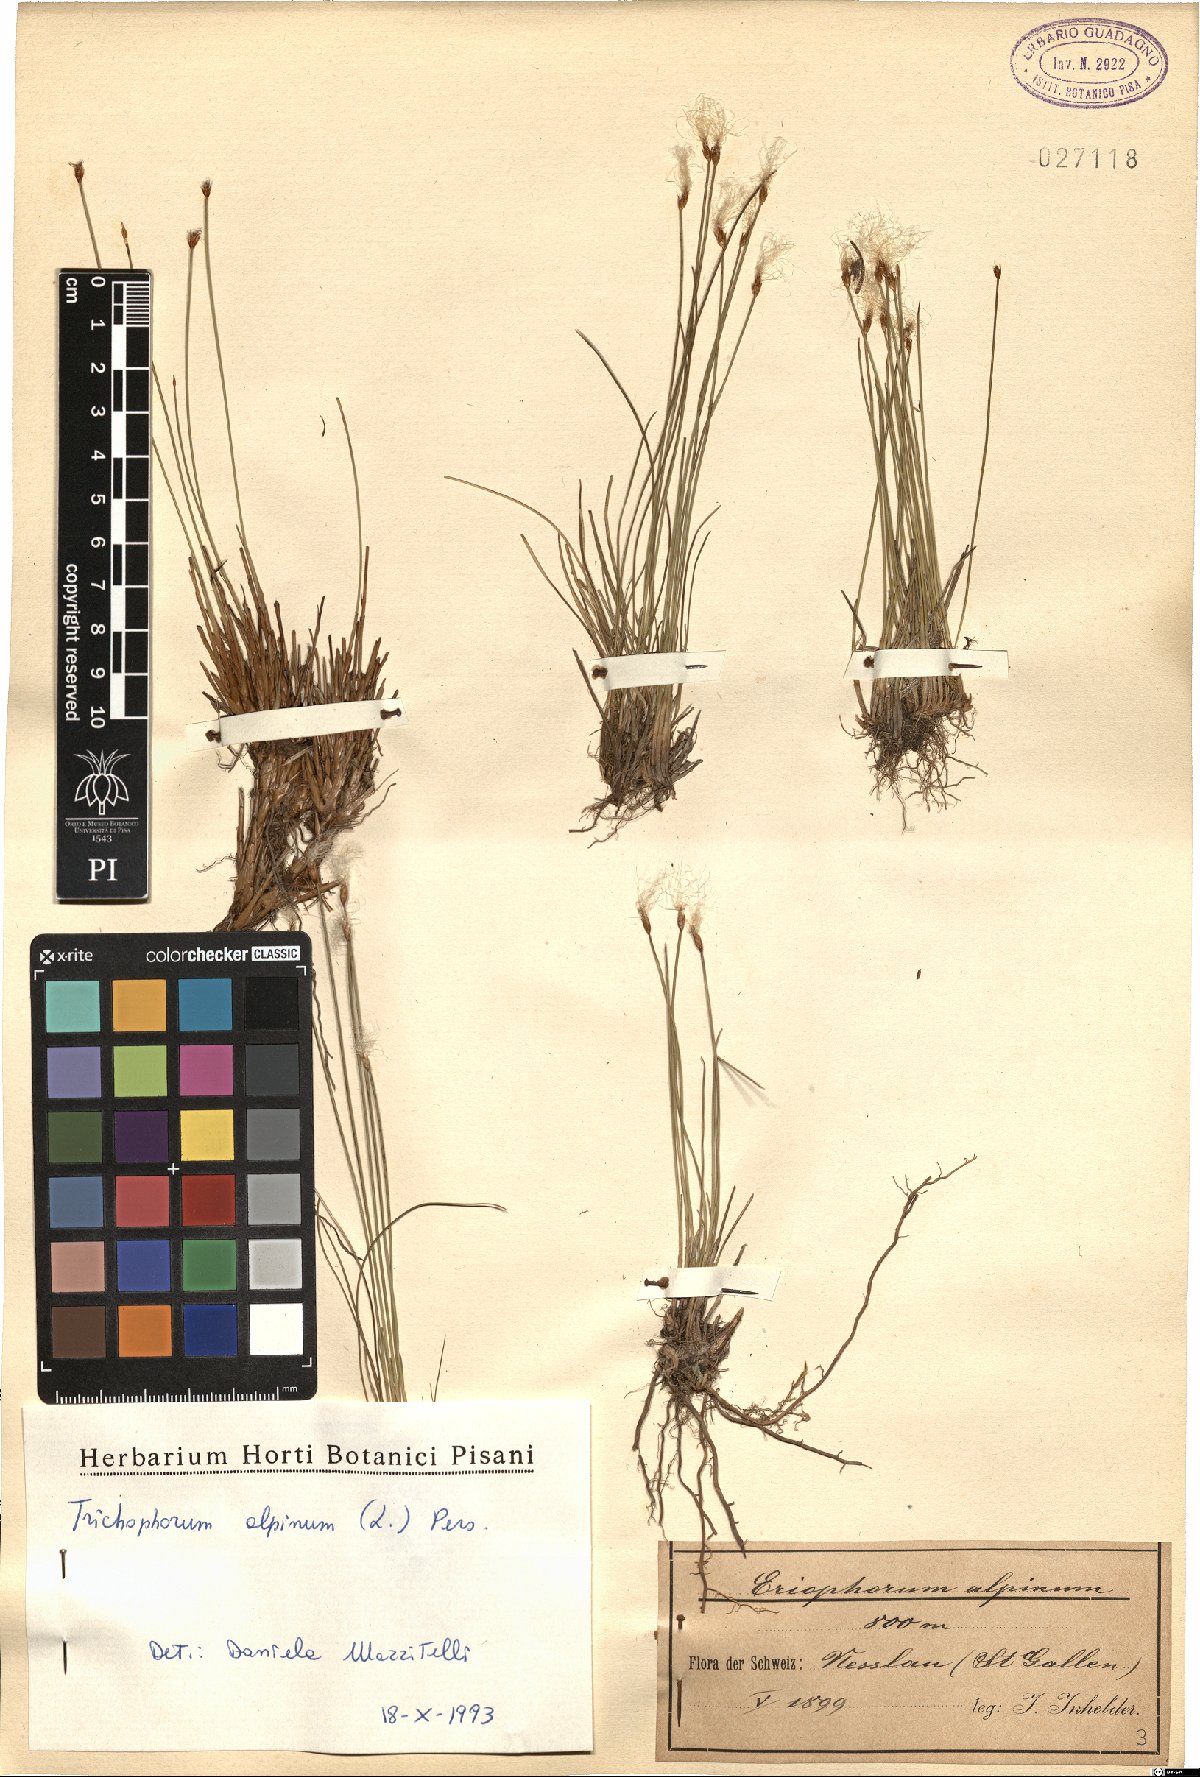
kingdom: Plantae
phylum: Tracheophyta
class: Liliopsida
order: Poales
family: Cyperaceae
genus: Trichophorum
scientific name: Trichophorum alpinum
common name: Alpine bulrush
